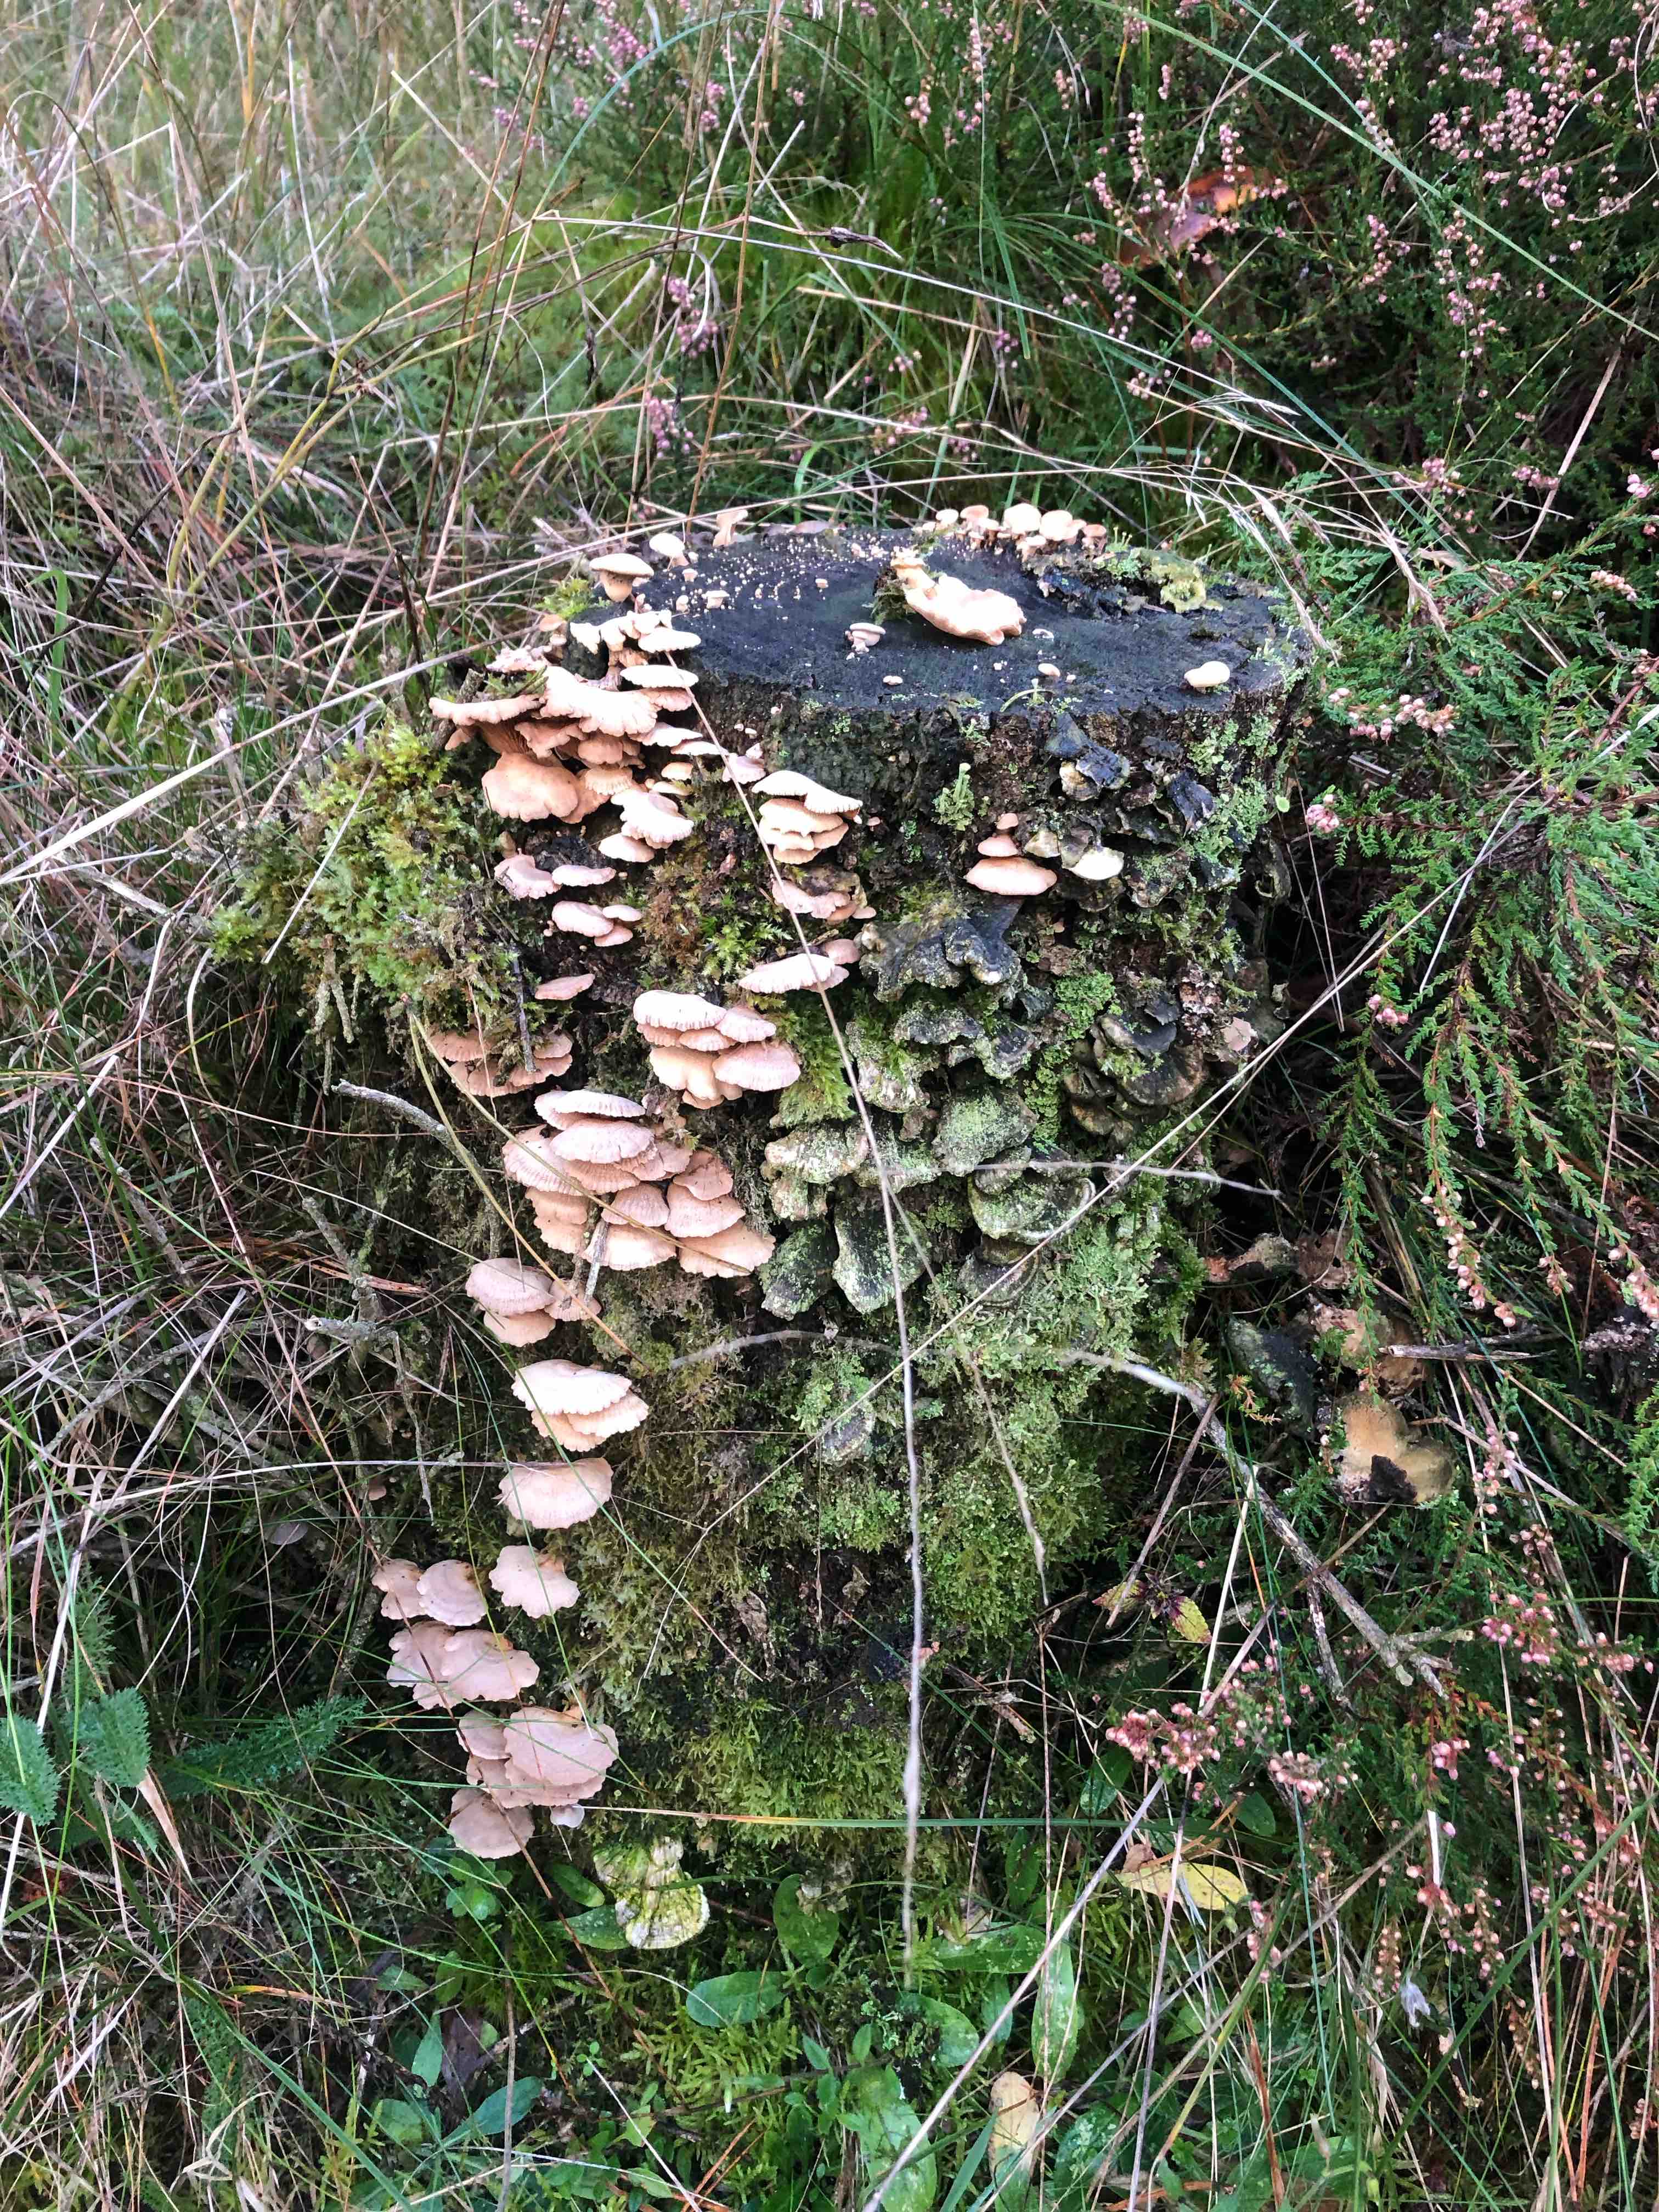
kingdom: Fungi
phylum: Basidiomycota
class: Agaricomycetes
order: Agaricales
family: Mycenaceae
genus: Panellus
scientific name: Panellus stipticus
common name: kliddet epaulethat
